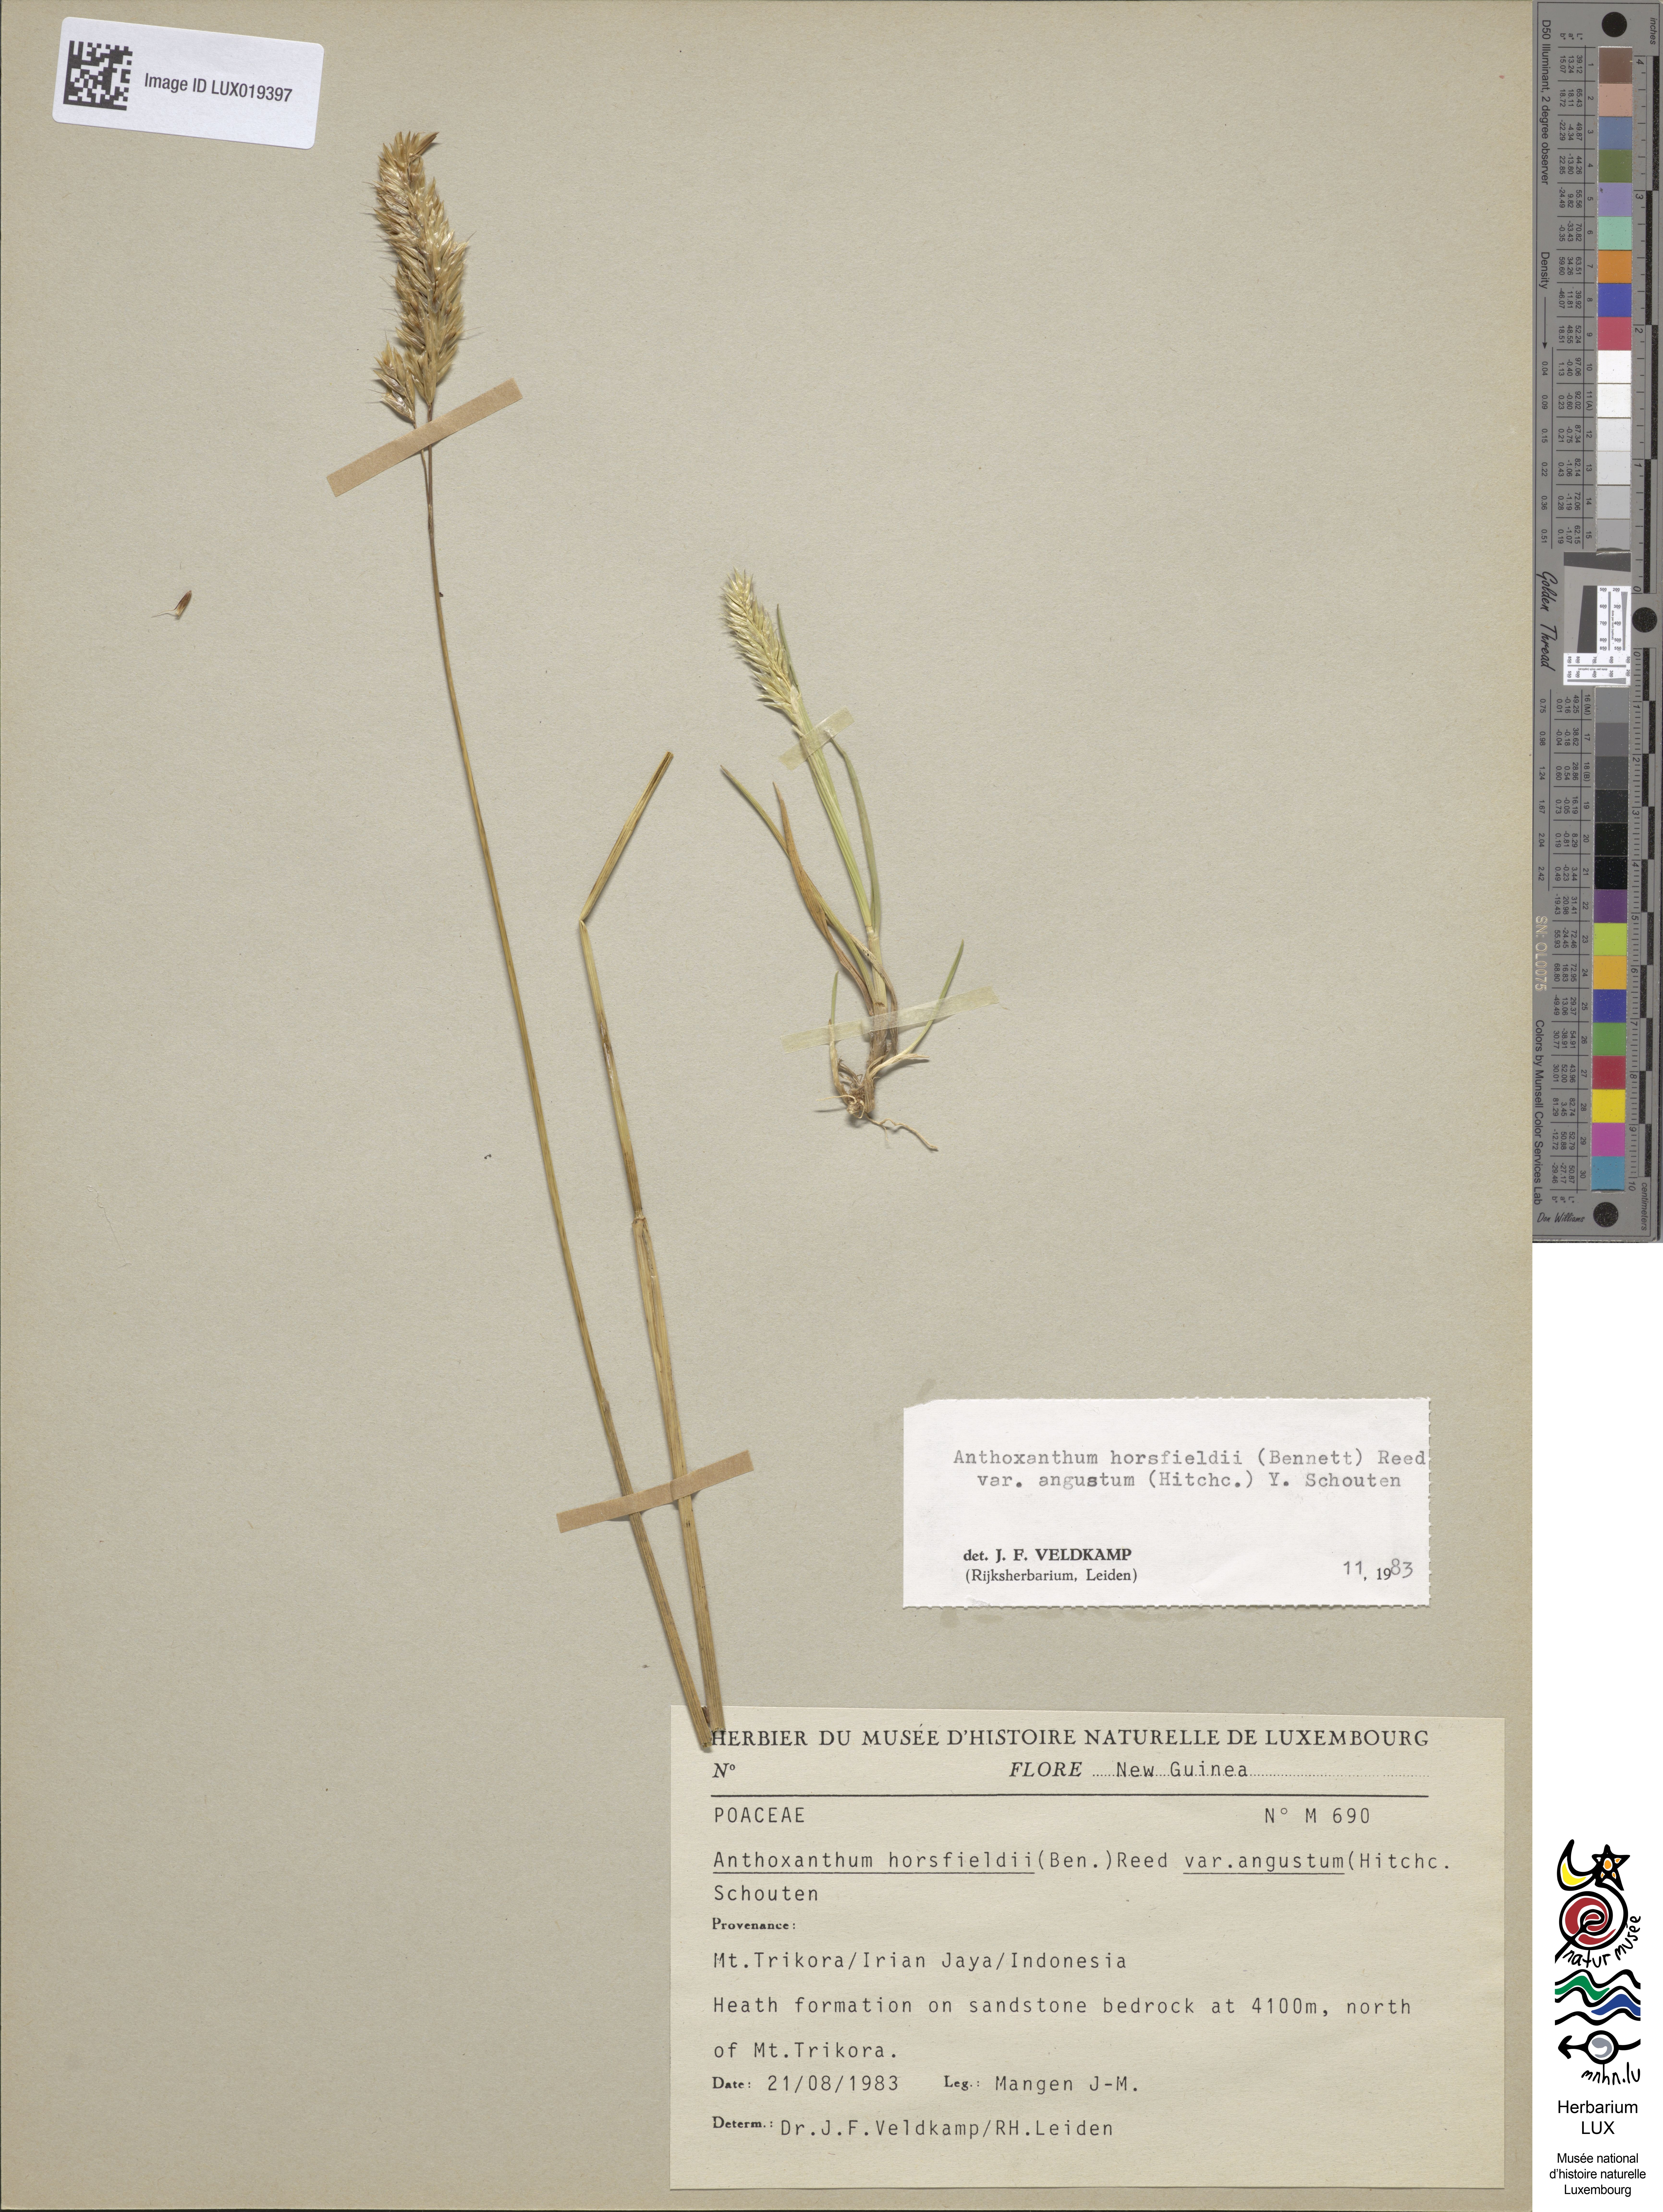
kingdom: Plantae
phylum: Tracheophyta
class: Liliopsida
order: Poales
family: Poaceae
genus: Anthoxanthum
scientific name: Anthoxanthum horsfieldii
